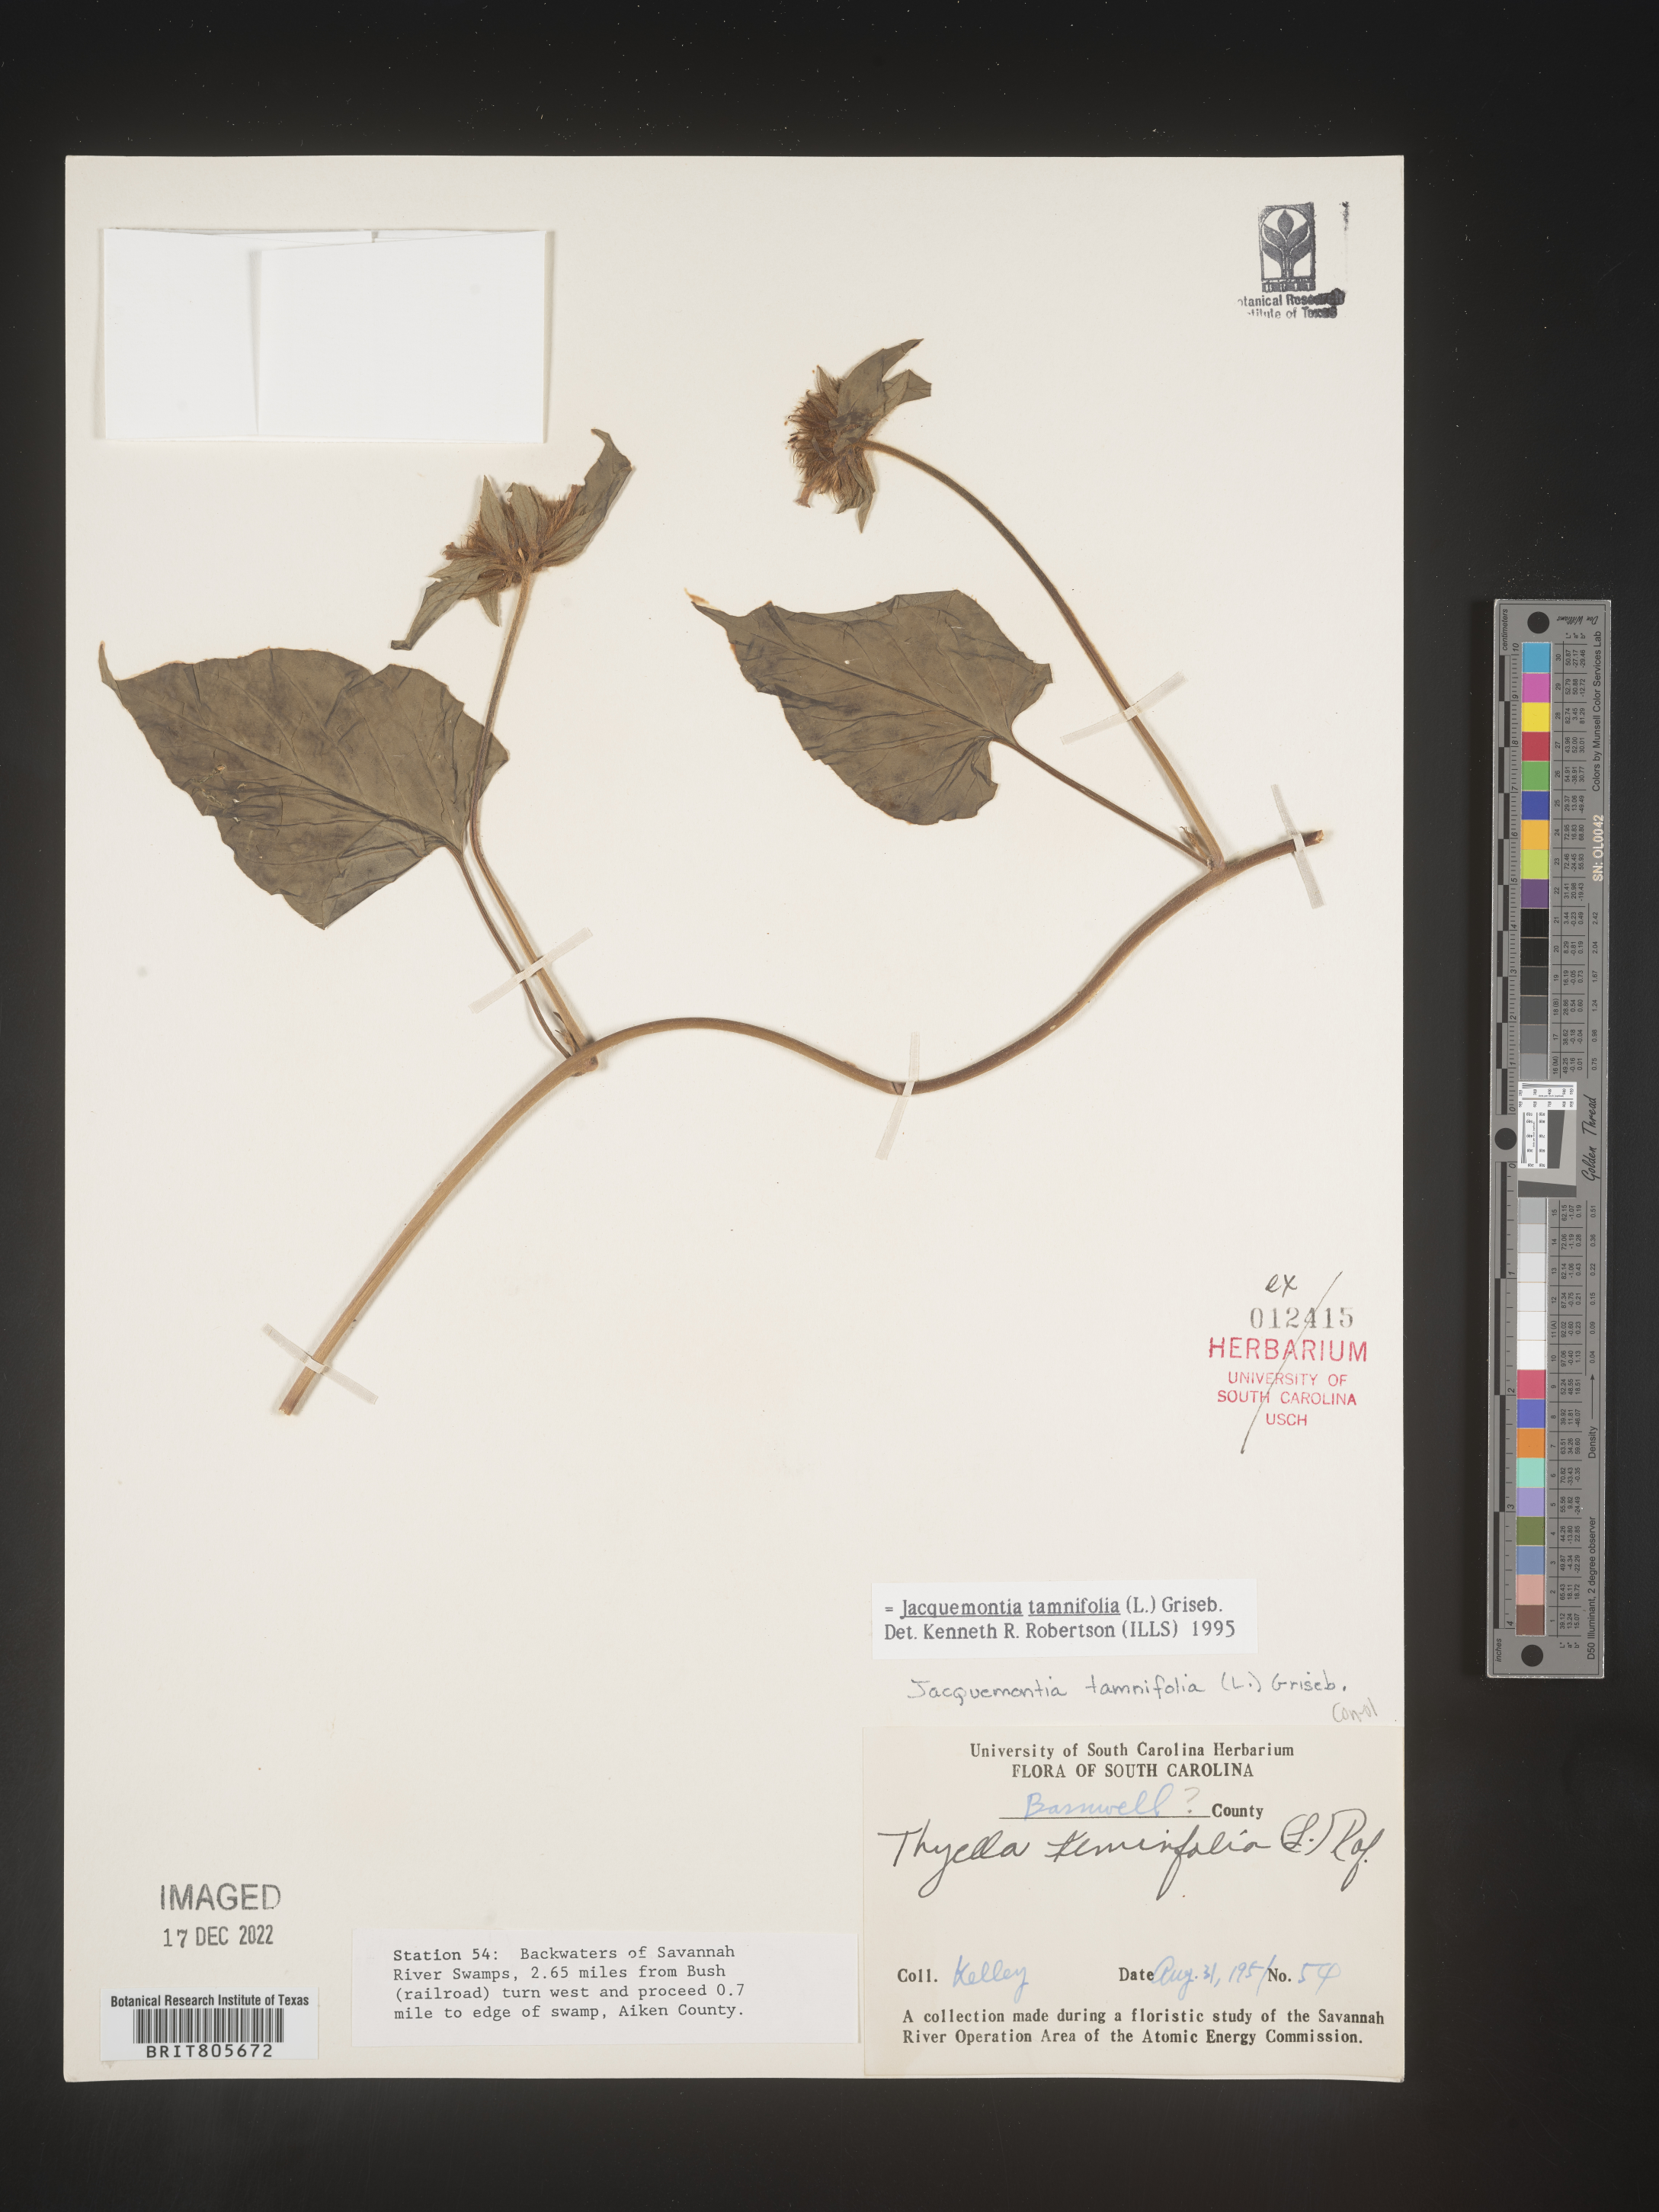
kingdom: Plantae
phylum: Tracheophyta
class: Magnoliopsida
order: Solanales
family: Convolvulaceae
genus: Jacquemontia
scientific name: Jacquemontia tamnifolia
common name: Hairy clustervine
